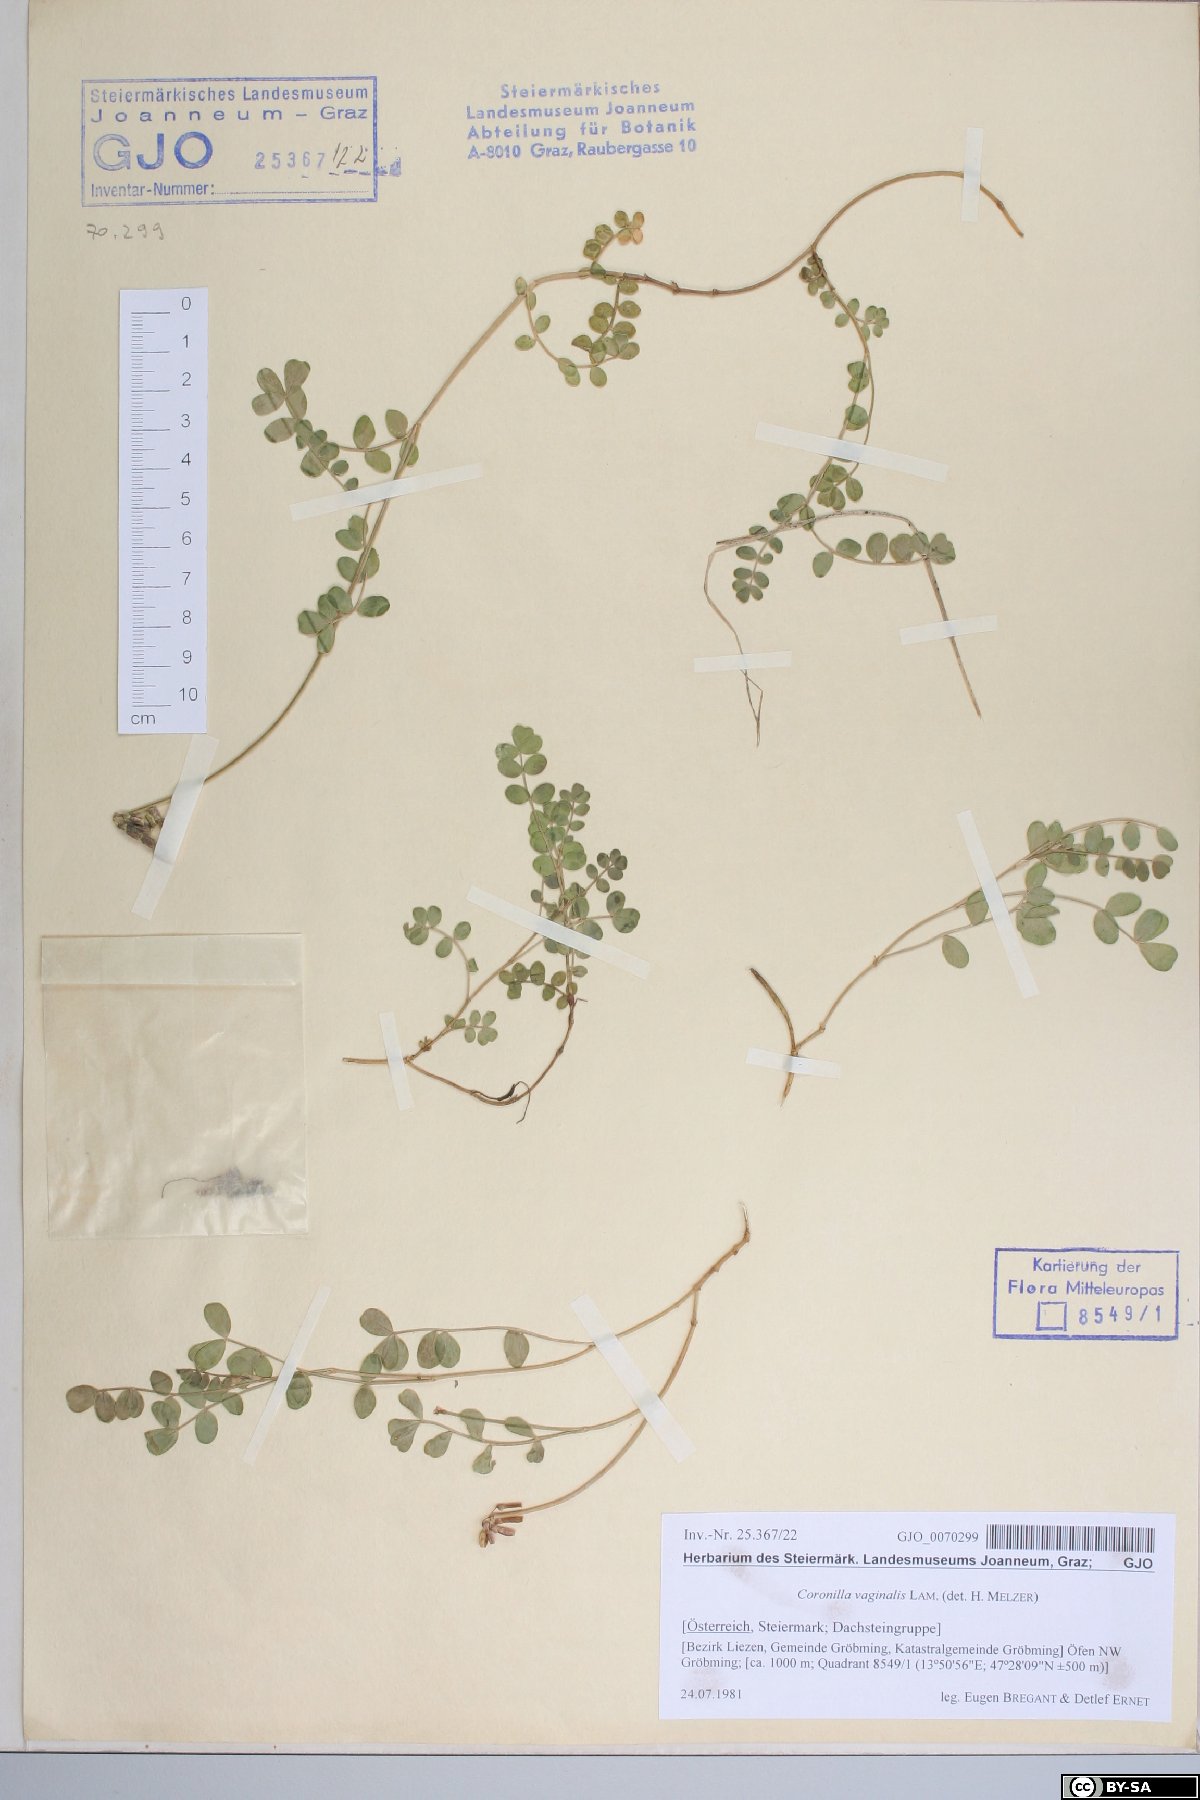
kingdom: Plantae
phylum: Tracheophyta
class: Magnoliopsida
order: Fabales
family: Fabaceae
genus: Coronilla
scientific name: Coronilla vaginalis
